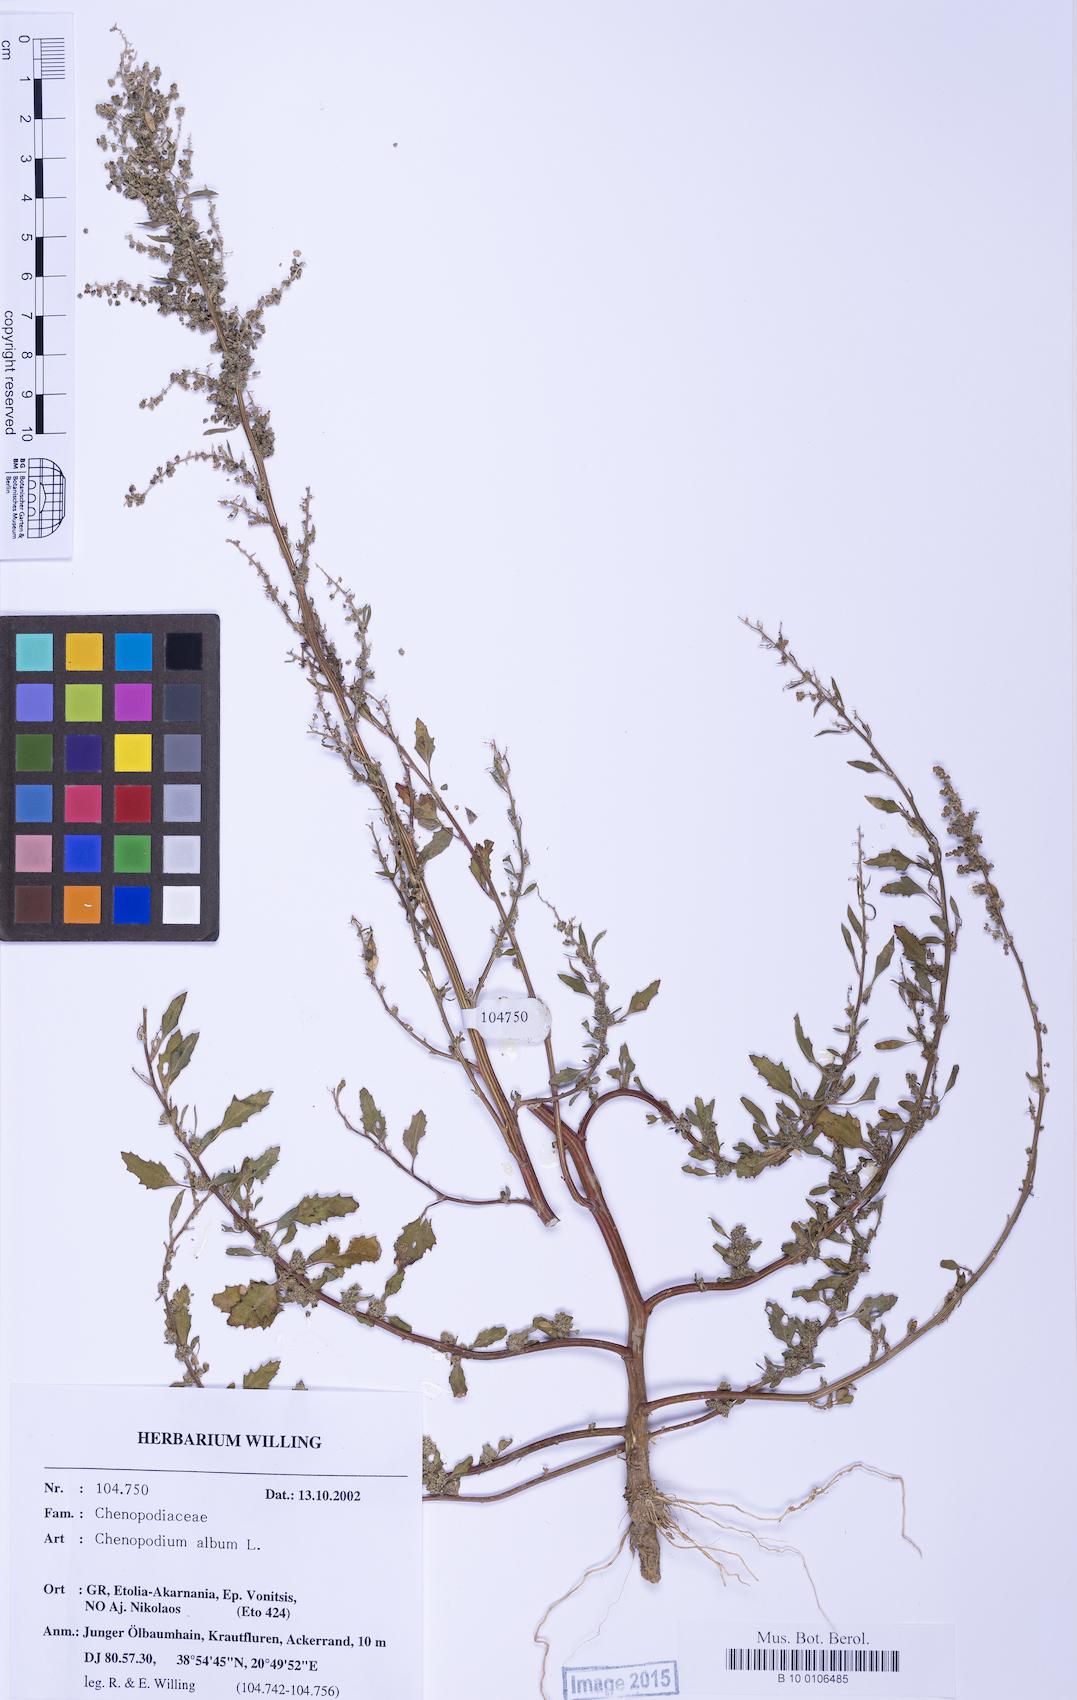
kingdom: Plantae
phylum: Tracheophyta
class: Magnoliopsida
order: Caryophyllales
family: Amaranthaceae
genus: Chenopodium
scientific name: Chenopodium striatiforme
